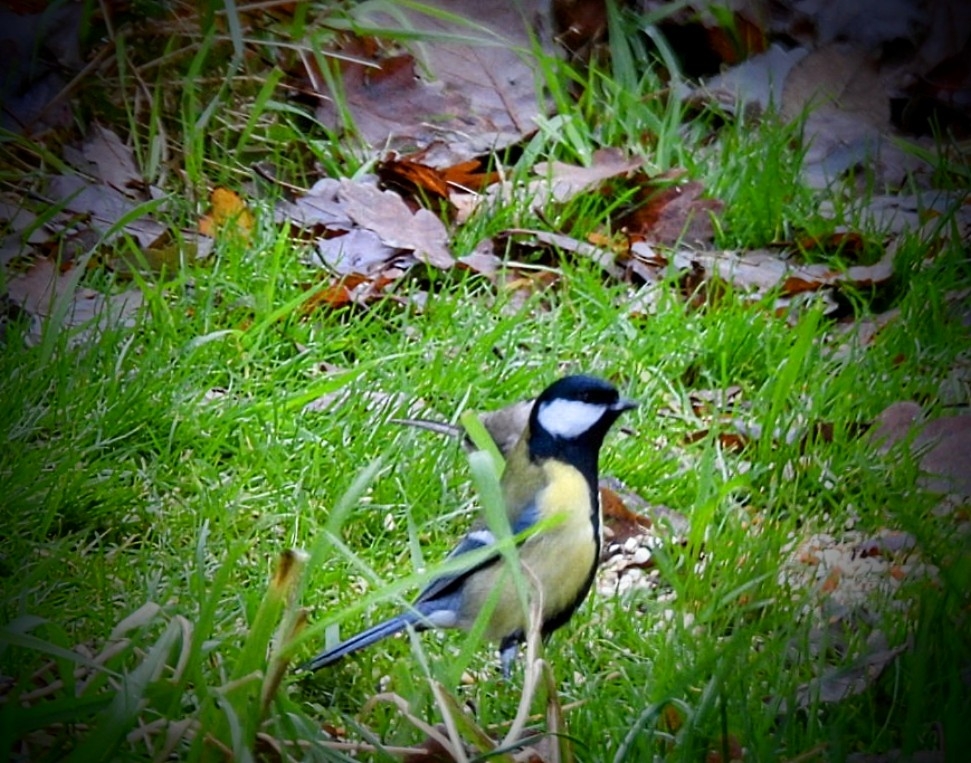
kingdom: Animalia
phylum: Chordata
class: Aves
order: Passeriformes
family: Paridae
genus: Parus
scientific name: Parus major
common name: Musvit
